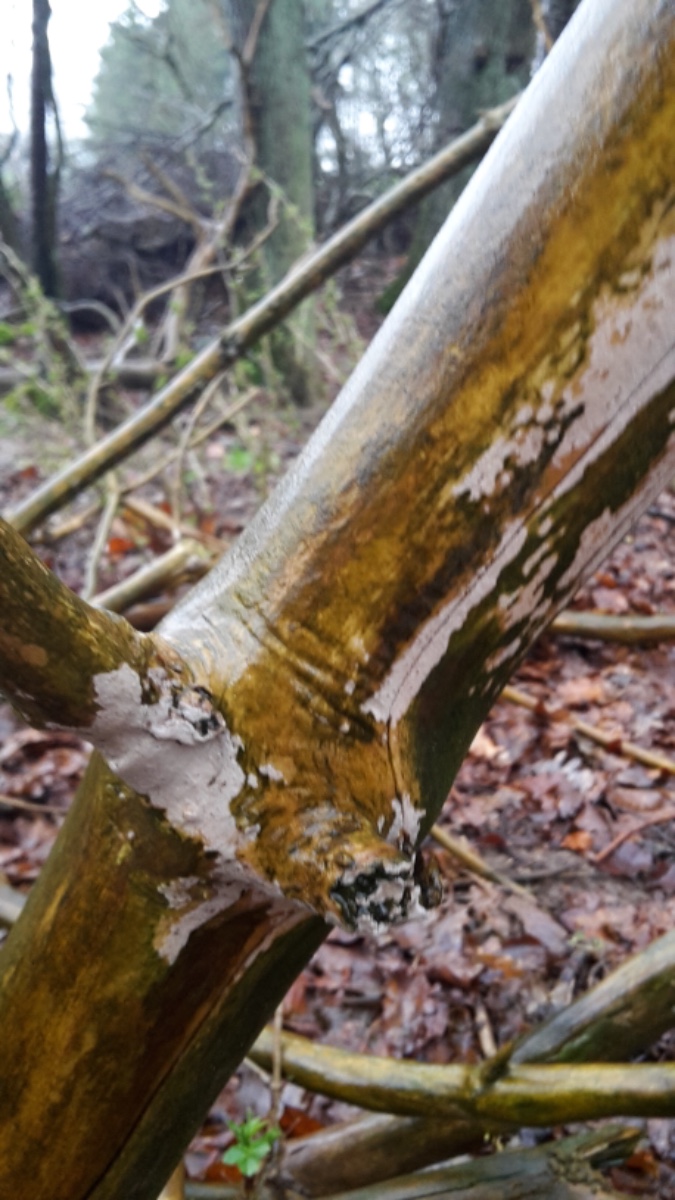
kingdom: Fungi
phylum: Basidiomycota
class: Agaricomycetes
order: Corticiales
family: Corticiaceae
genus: Lyomyces
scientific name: Lyomyces sambuci
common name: almindelig hyldehinde
